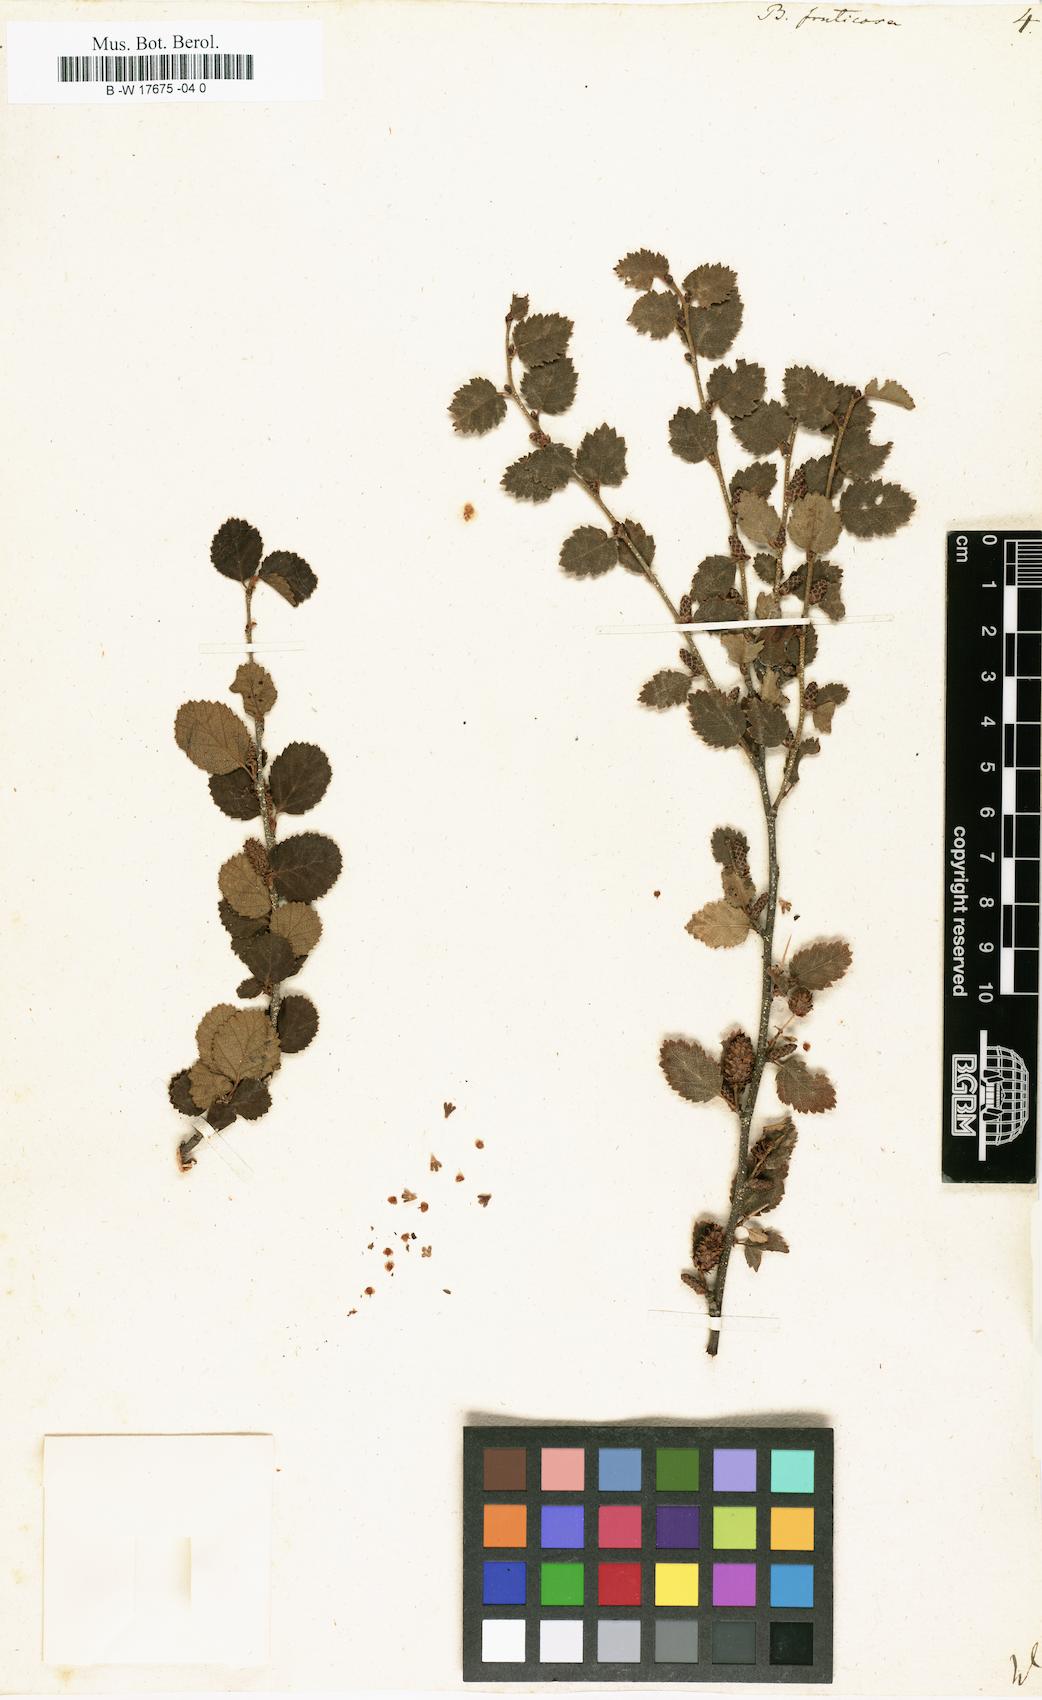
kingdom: Plantae
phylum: Tracheophyta
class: Magnoliopsida
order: Fagales
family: Betulaceae
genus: Betula
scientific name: Betula fruticosa
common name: Japanese bog birch
